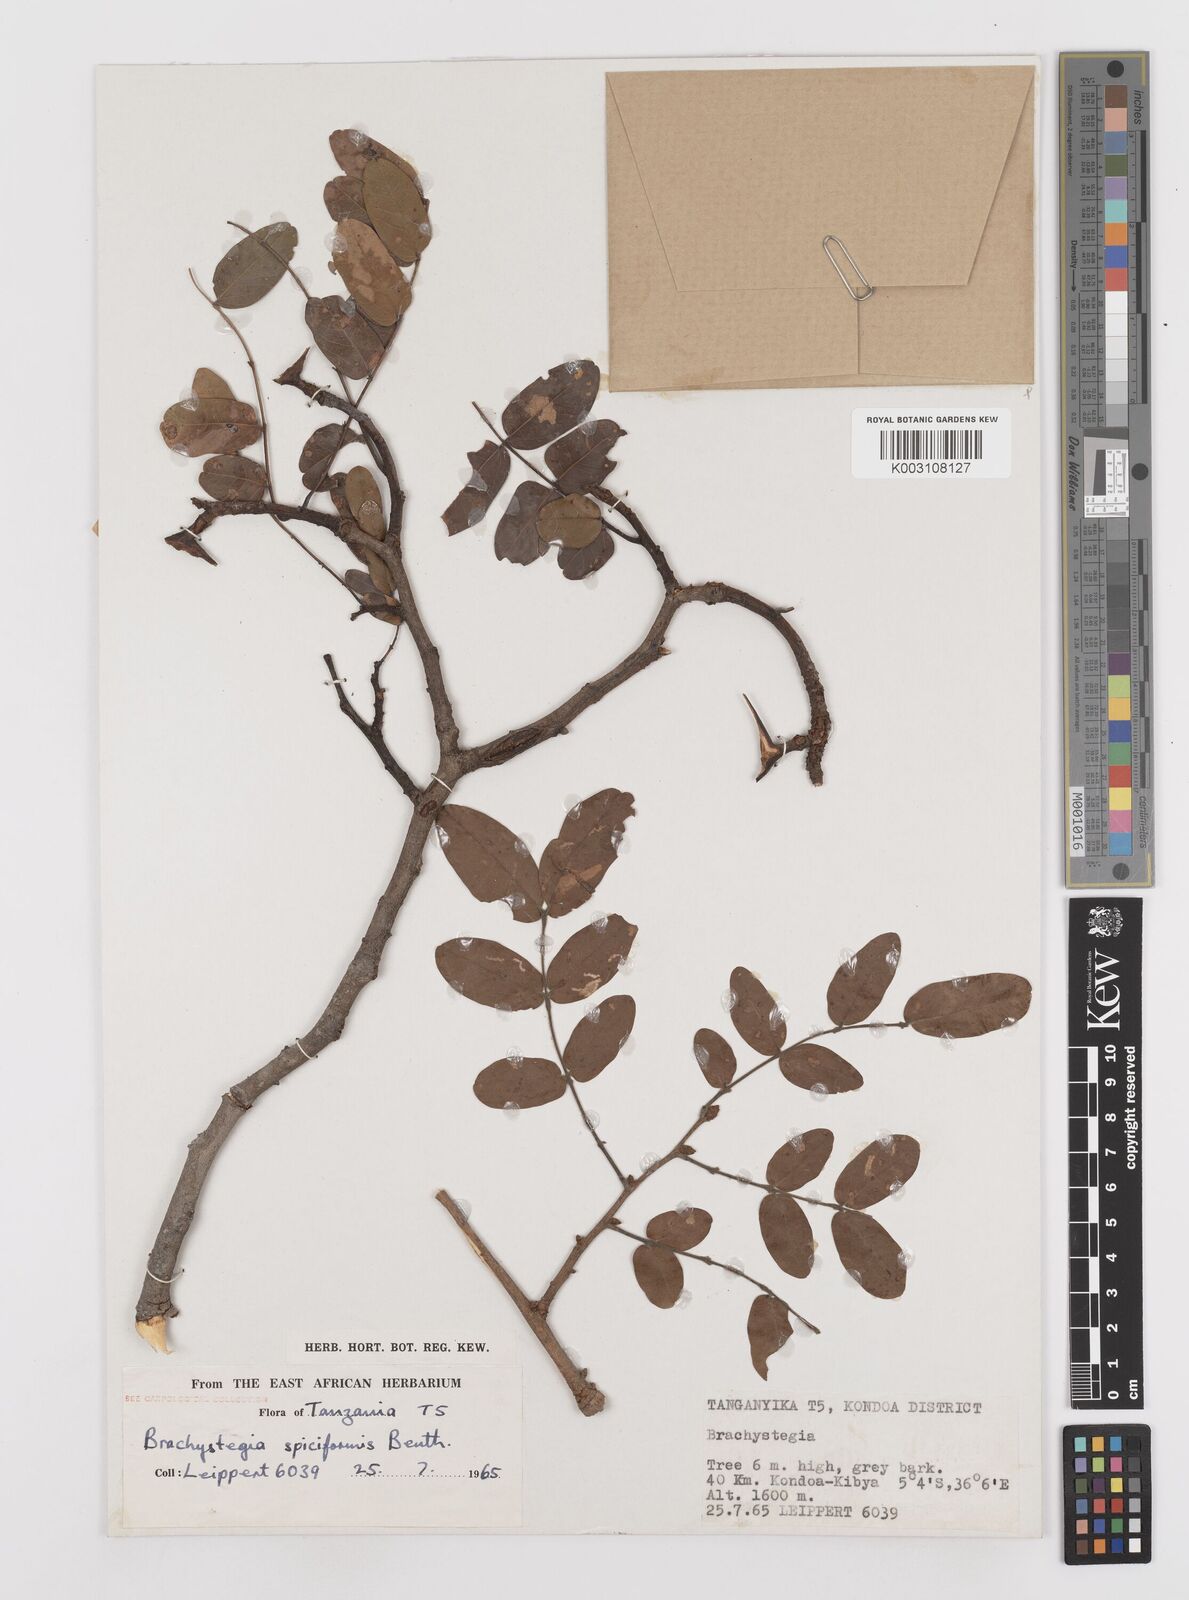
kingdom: Plantae
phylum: Tracheophyta
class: Magnoliopsida
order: Fabales
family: Fabaceae
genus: Brachystegia
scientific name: Brachystegia spiciformis
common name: Zebrawood
